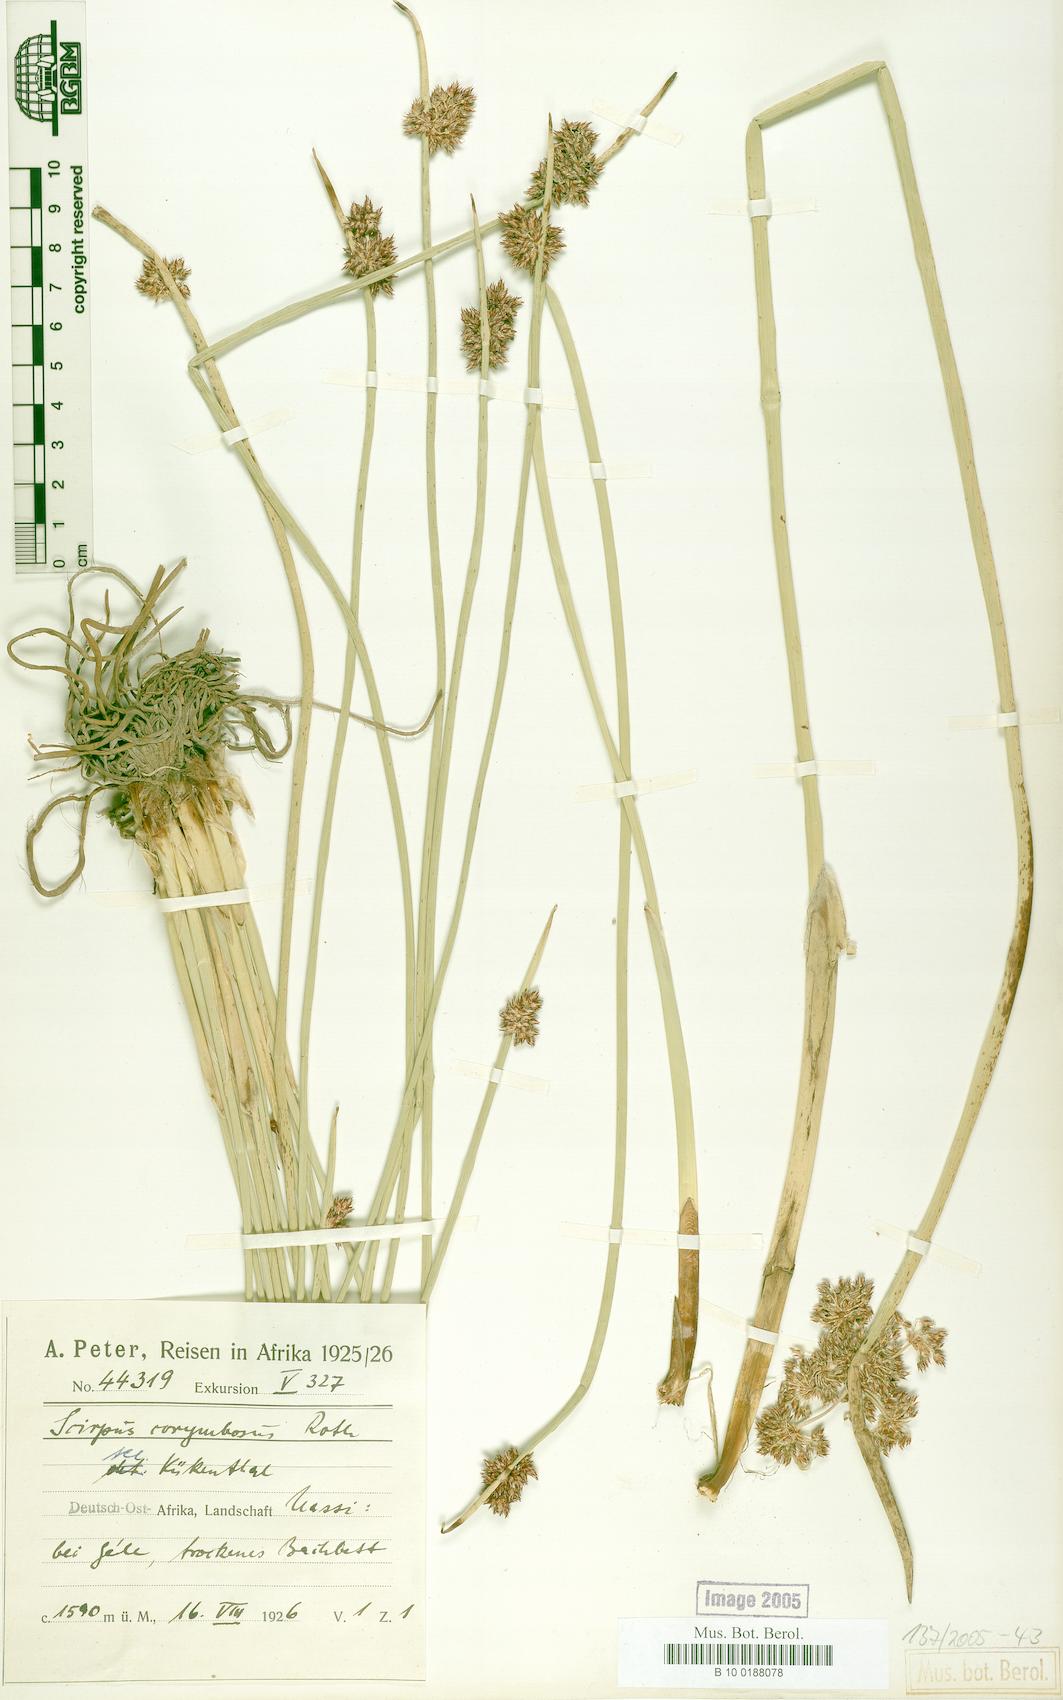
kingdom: Plantae
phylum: Tracheophyta
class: Liliopsida
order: Poales
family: Cyperaceae
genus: Schoenoplectiella
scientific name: Schoenoplectiella muricinux
